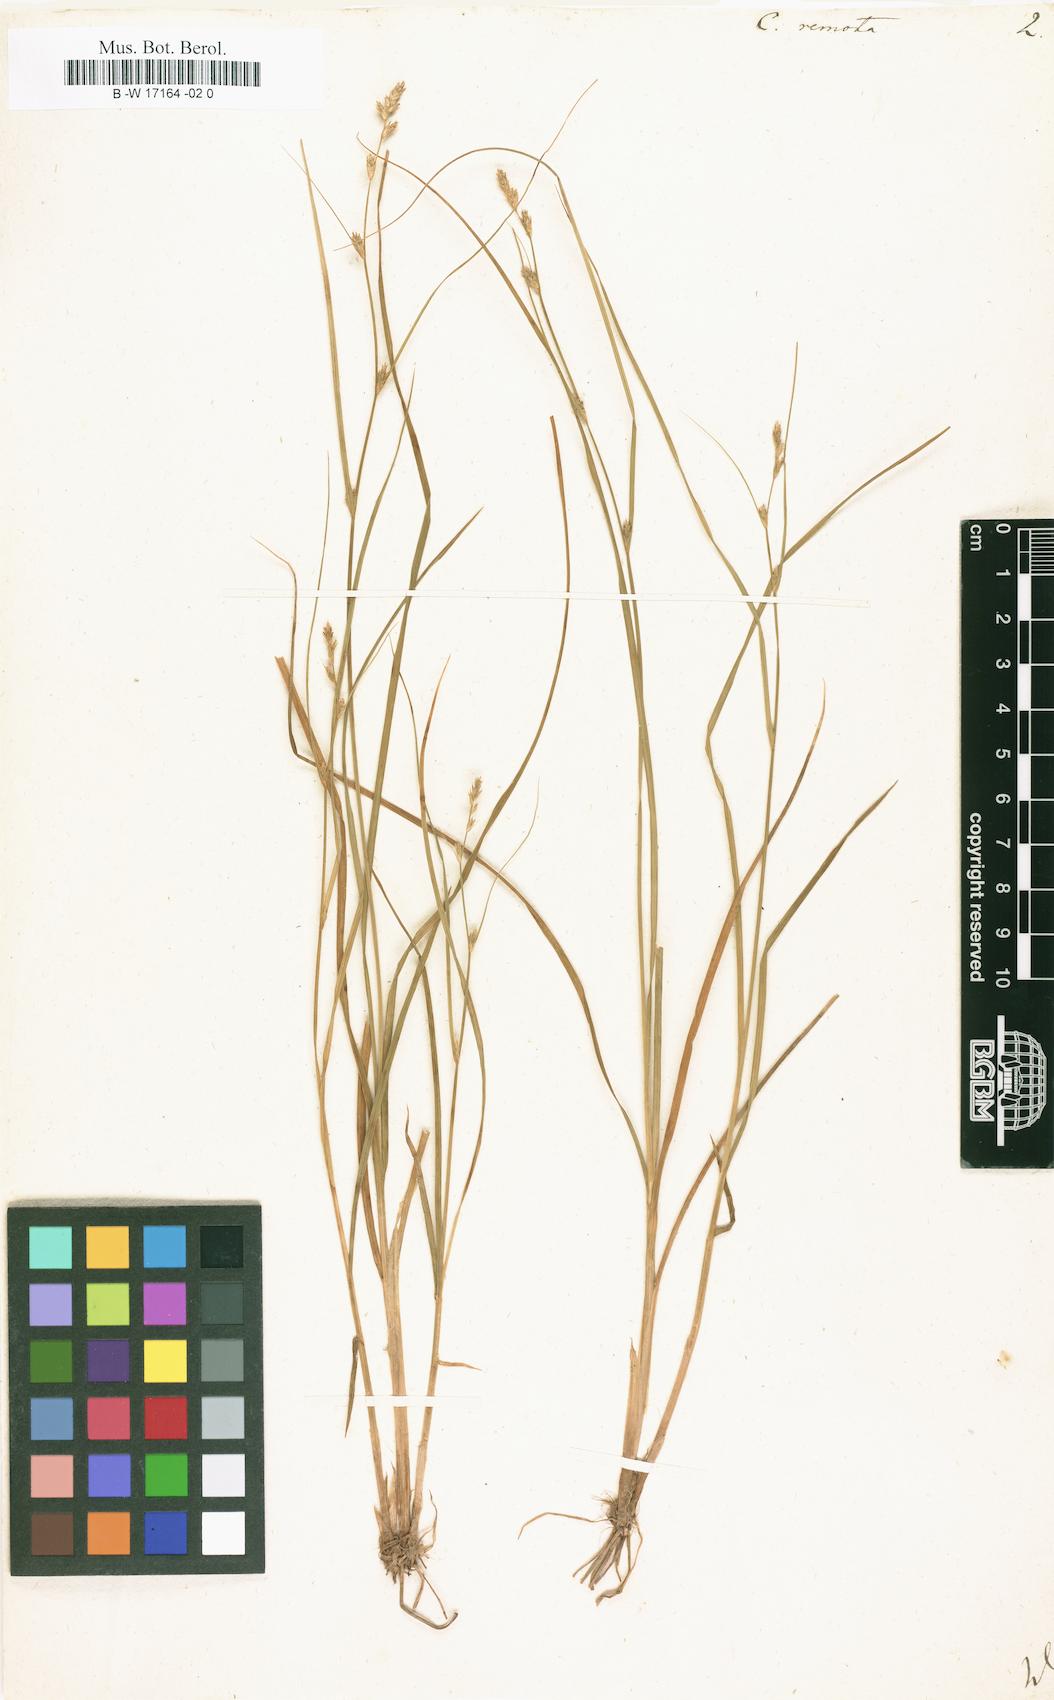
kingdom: Plantae
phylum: Tracheophyta
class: Liliopsida
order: Poales
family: Cyperaceae
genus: Carex
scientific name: Carex remota
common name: Remote sedge
